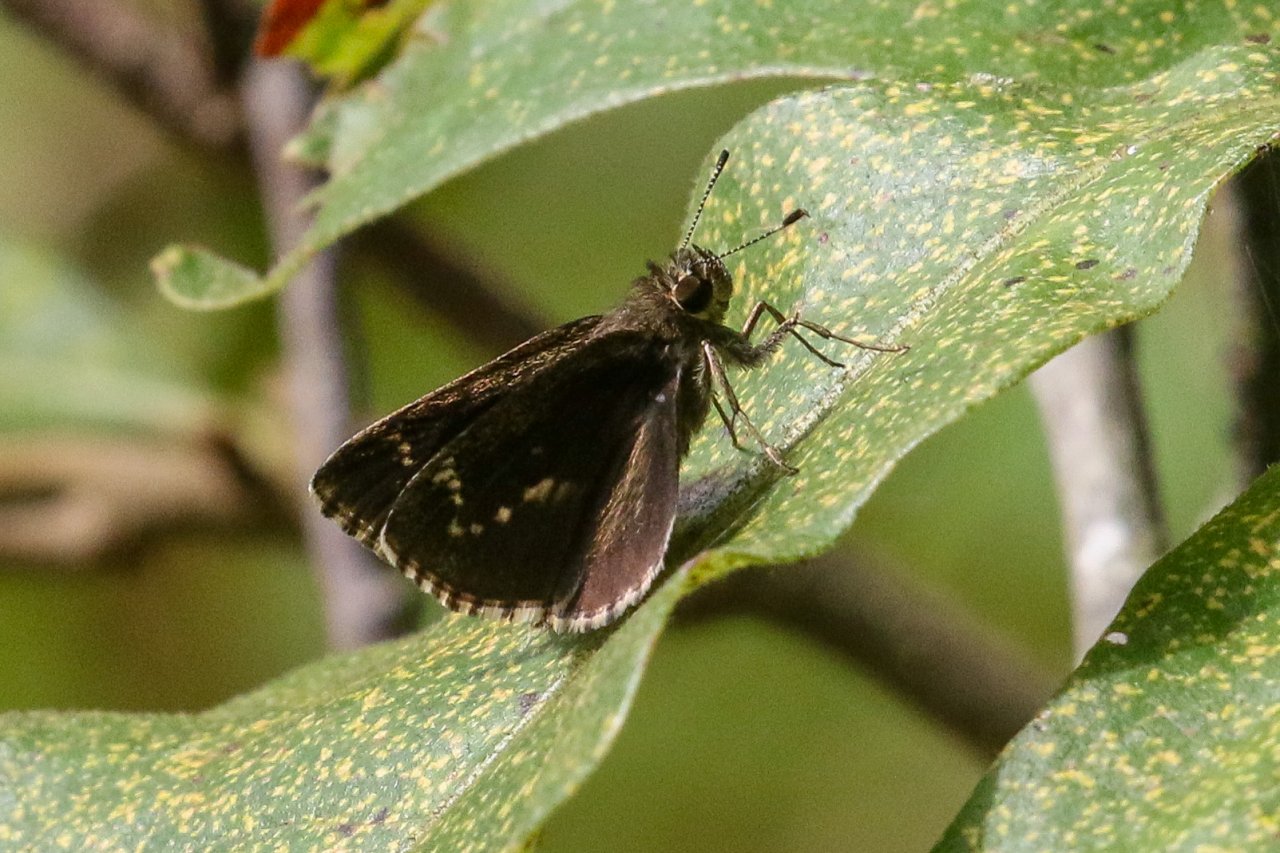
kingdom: Animalia
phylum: Arthropoda
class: Insecta
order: Lepidoptera
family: Hesperiidae
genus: Mastor
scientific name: Mastor celia
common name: Bell's Roadside-Skipper
